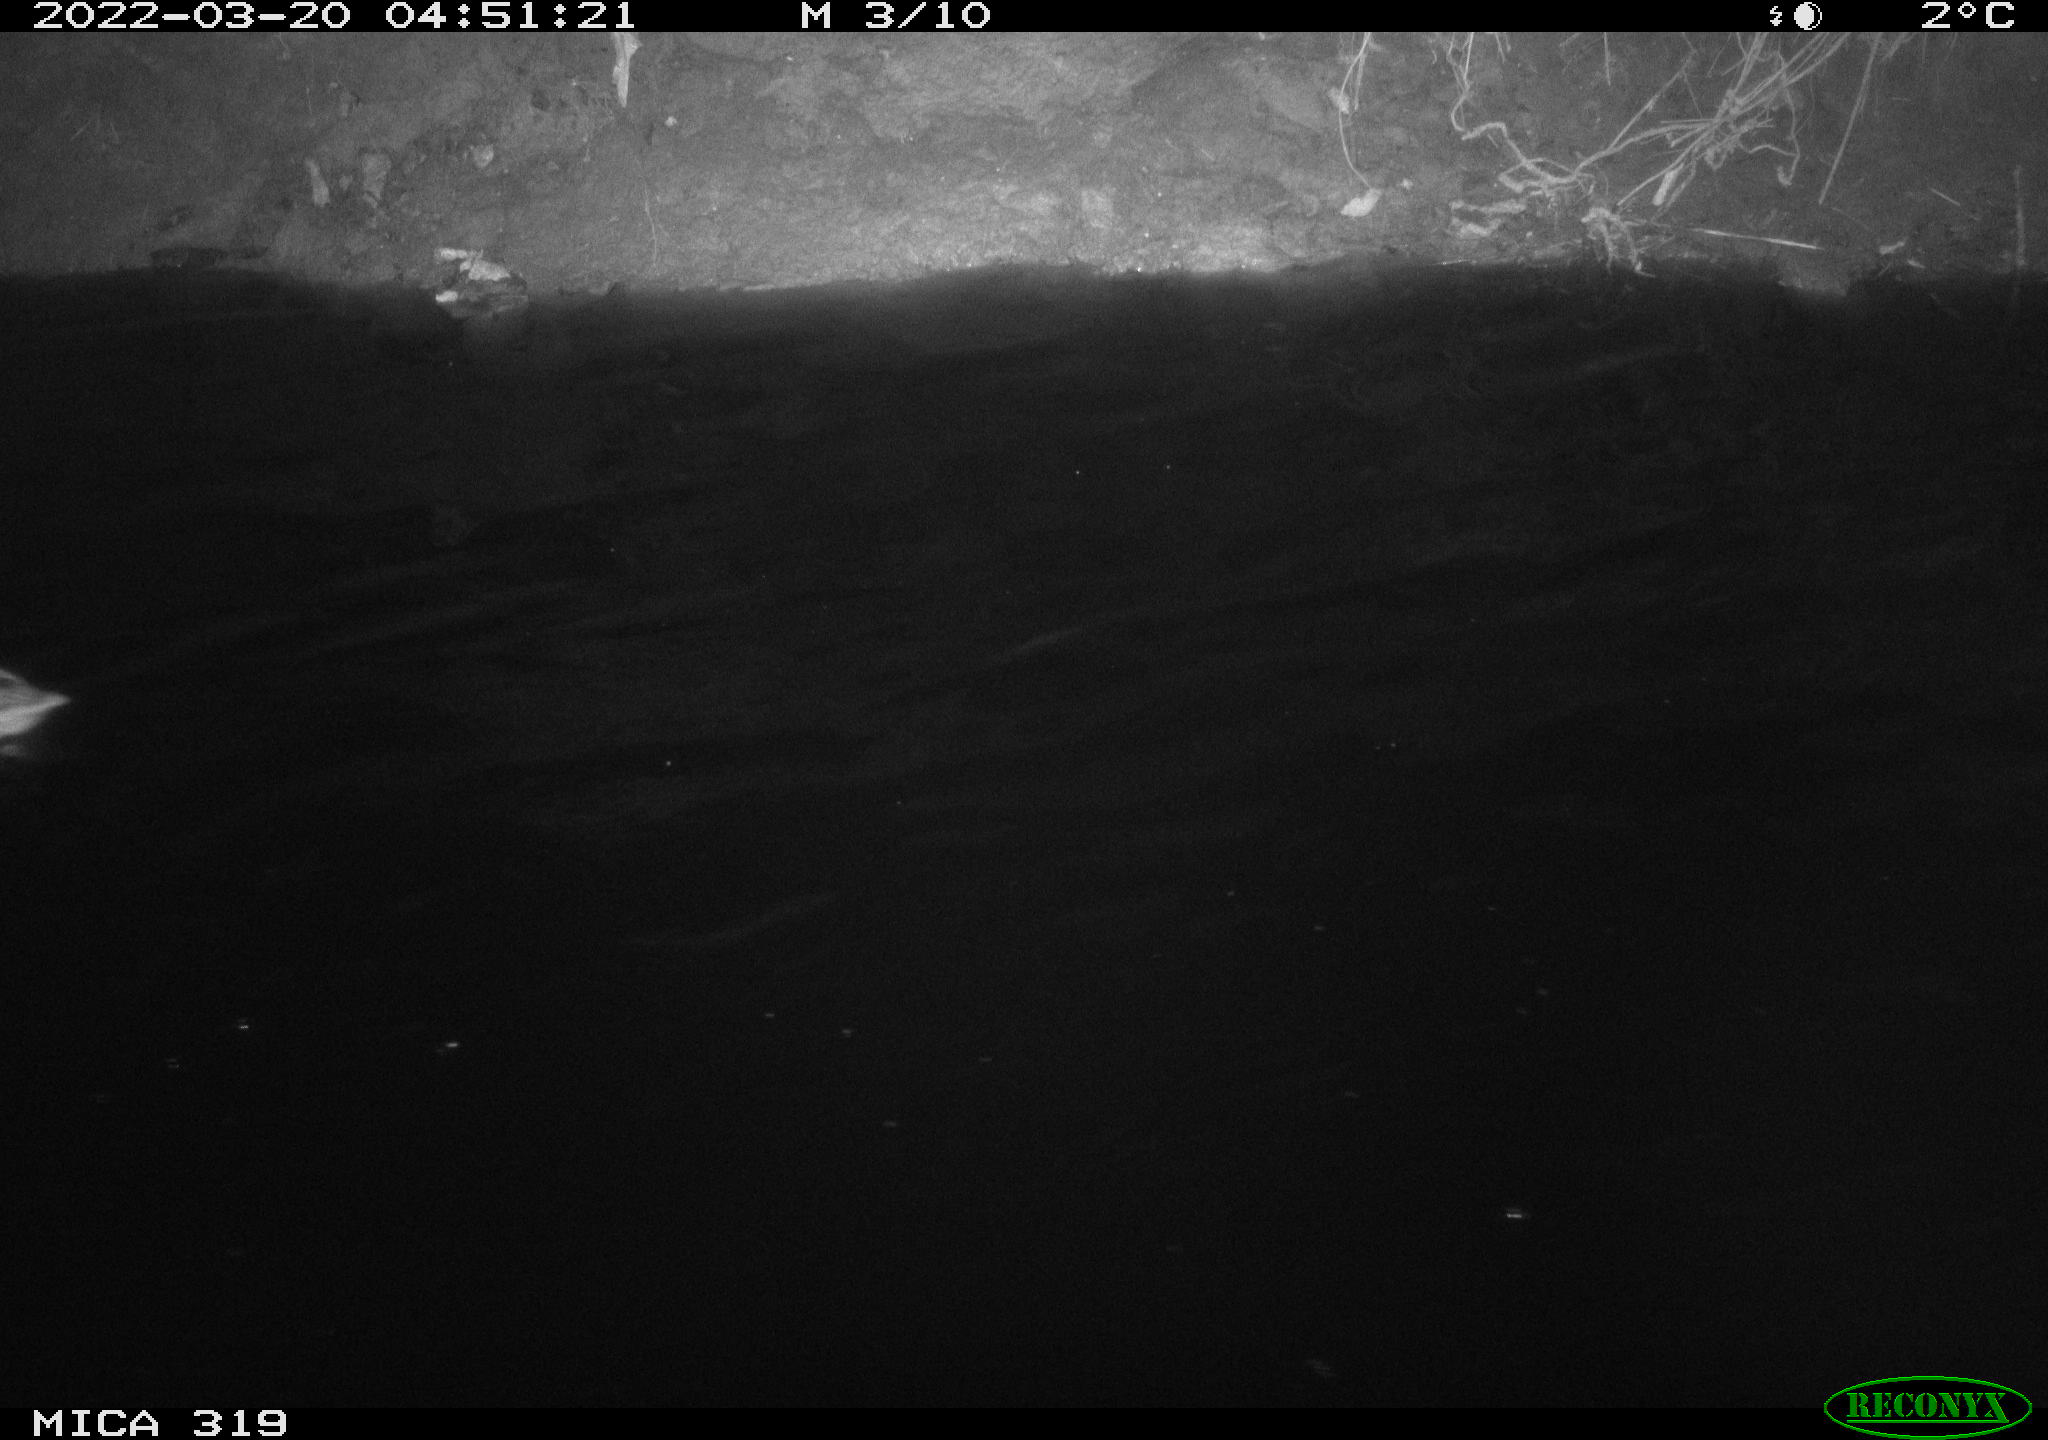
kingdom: Animalia
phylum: Chordata
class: Aves
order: Anseriformes
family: Anatidae
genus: Anas
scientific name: Anas platyrhynchos
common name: Mallard
